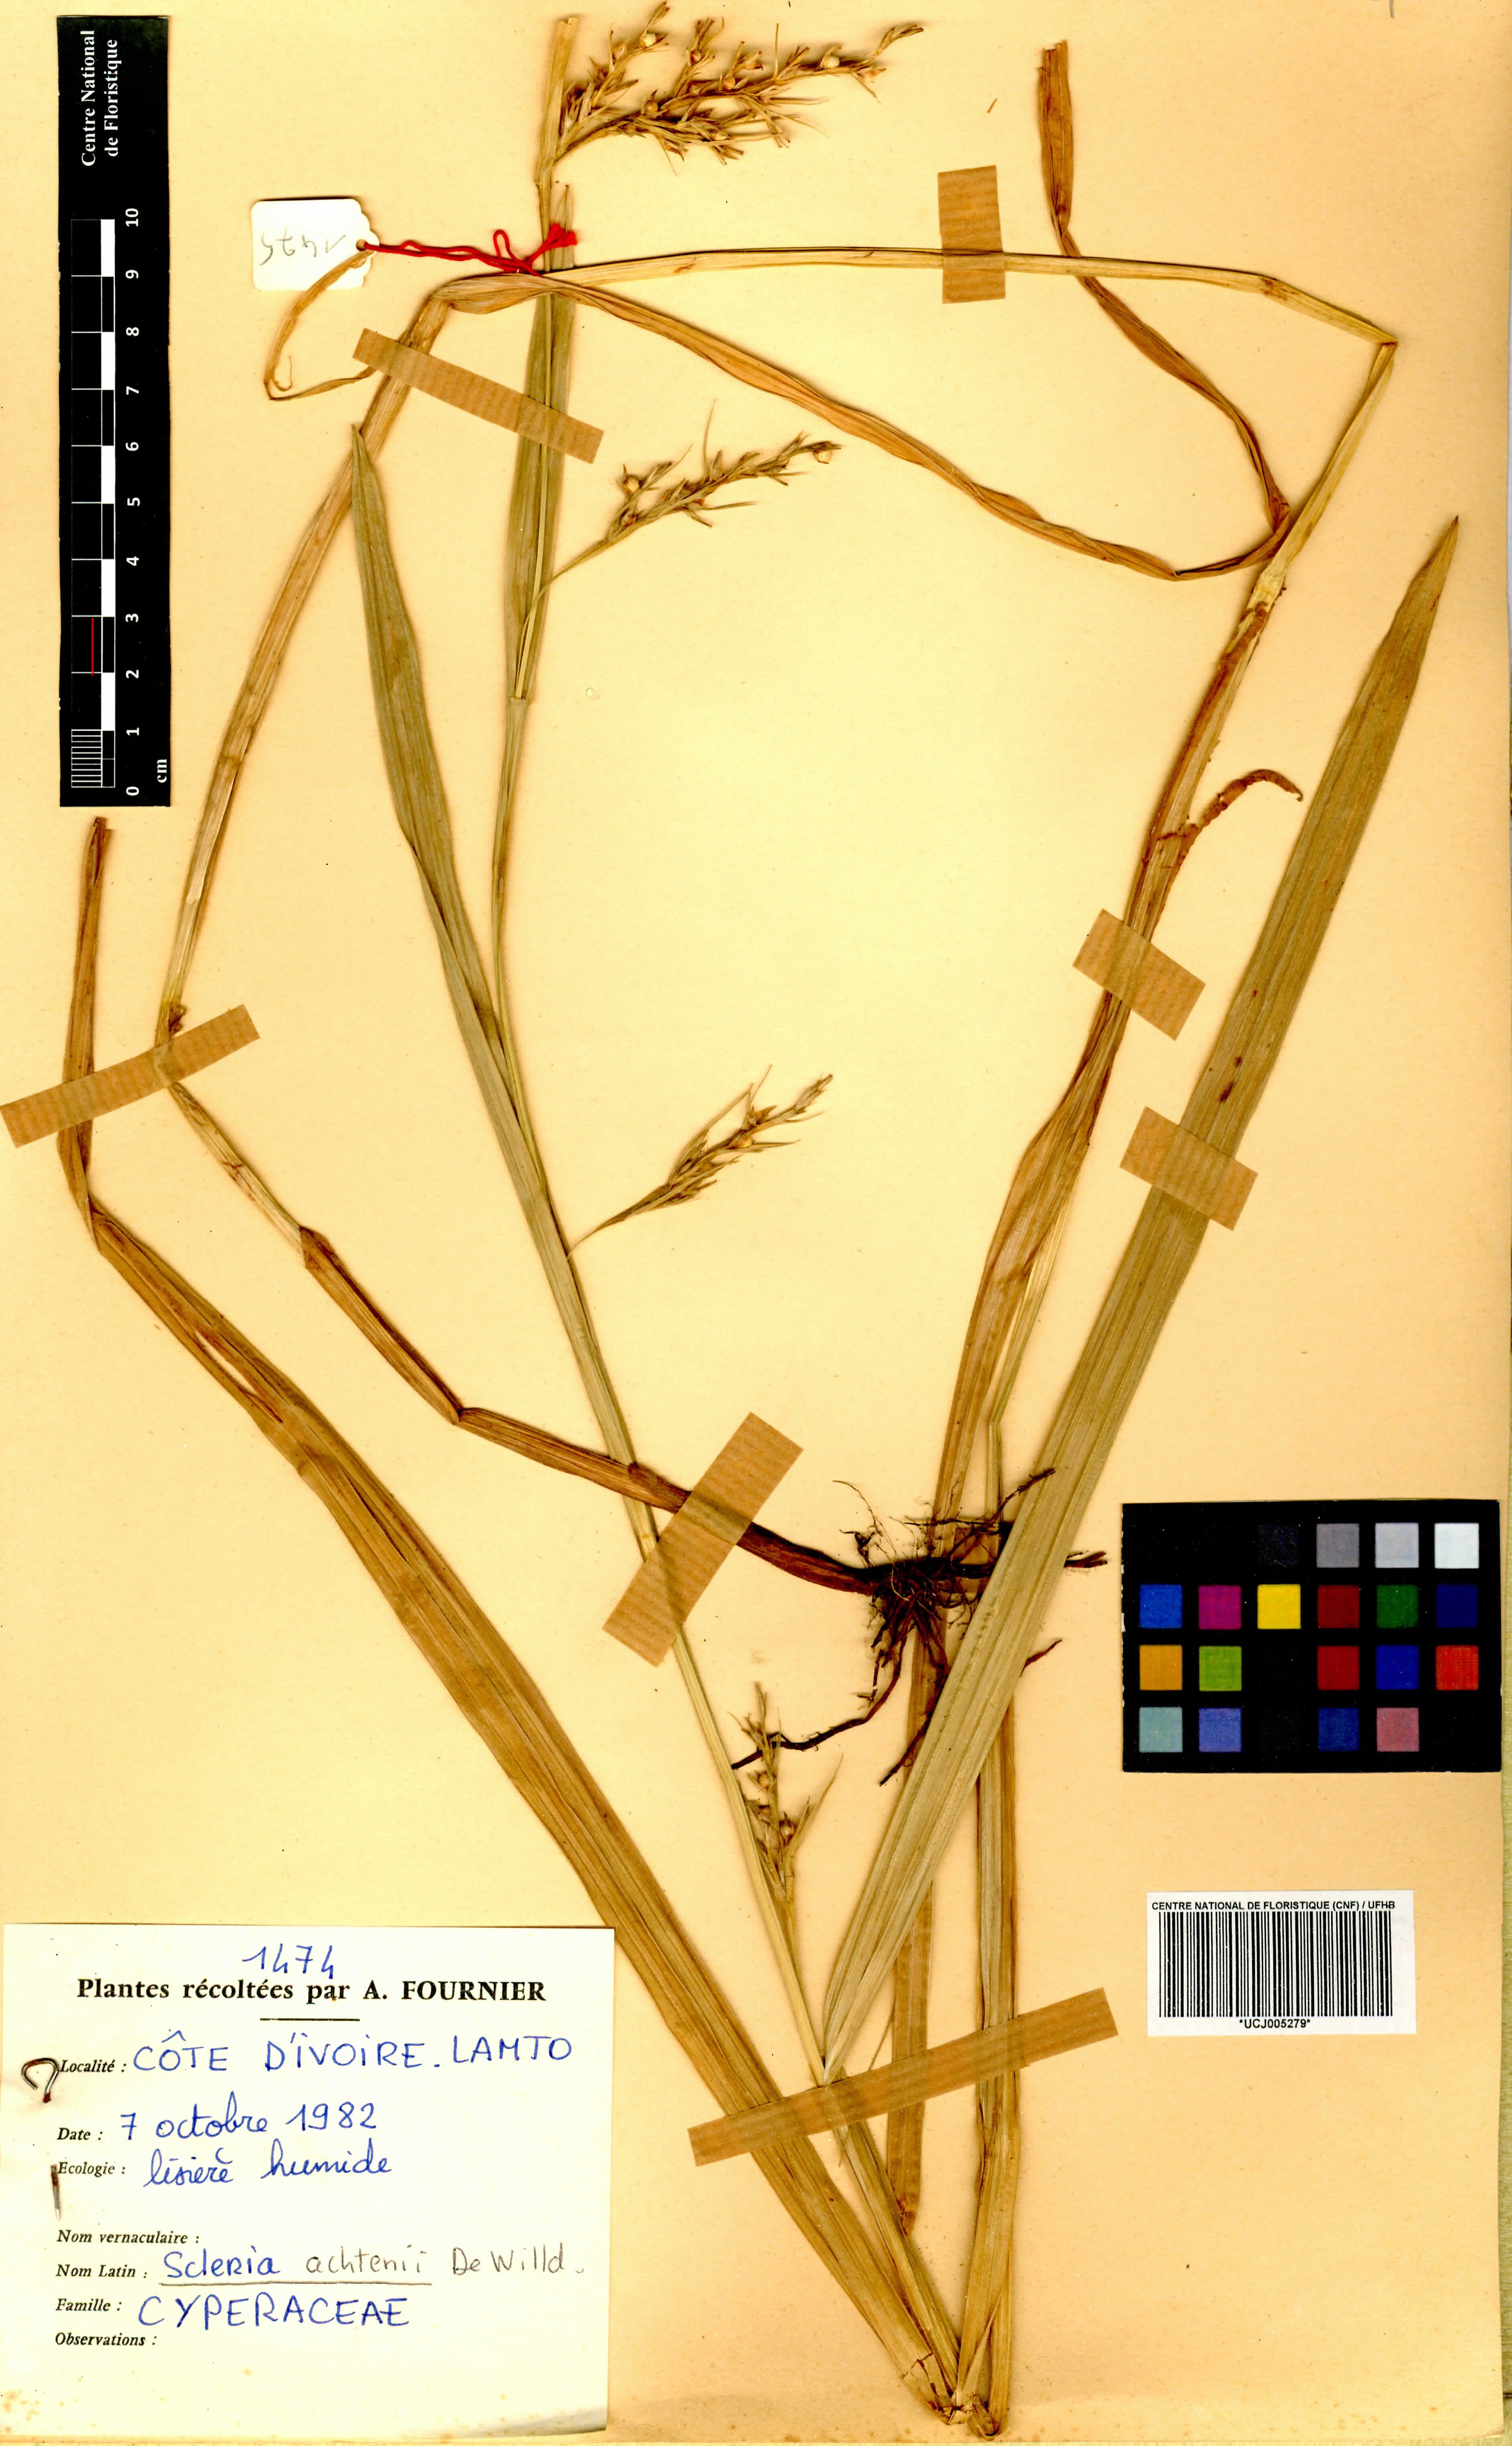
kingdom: Plantae
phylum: Tracheophyta
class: Liliopsida
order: Poales
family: Cyperaceae
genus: Scleria
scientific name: Scleria achtenii
